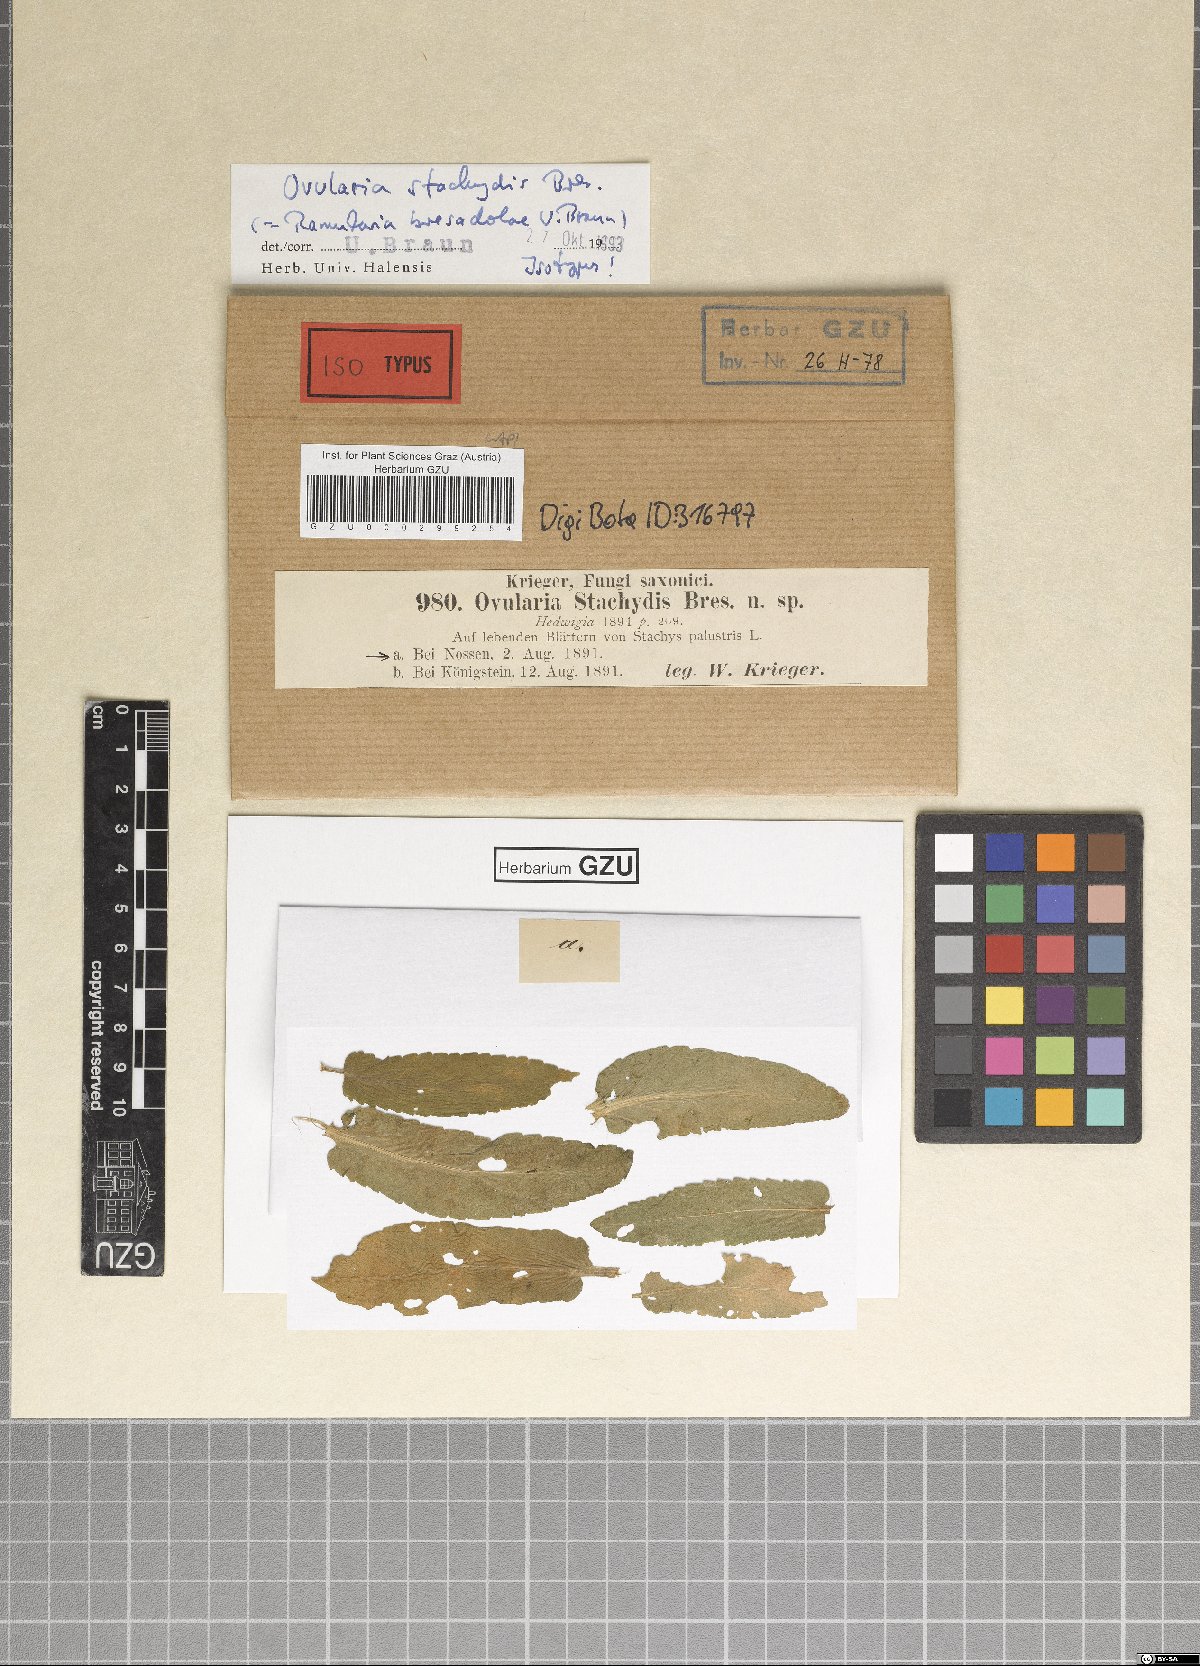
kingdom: Fungi
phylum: Ascomycota
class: Dothideomycetes
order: Mycosphaerellales
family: Mycosphaerellaceae
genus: Ramularia
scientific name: Ramularia bresadolae
